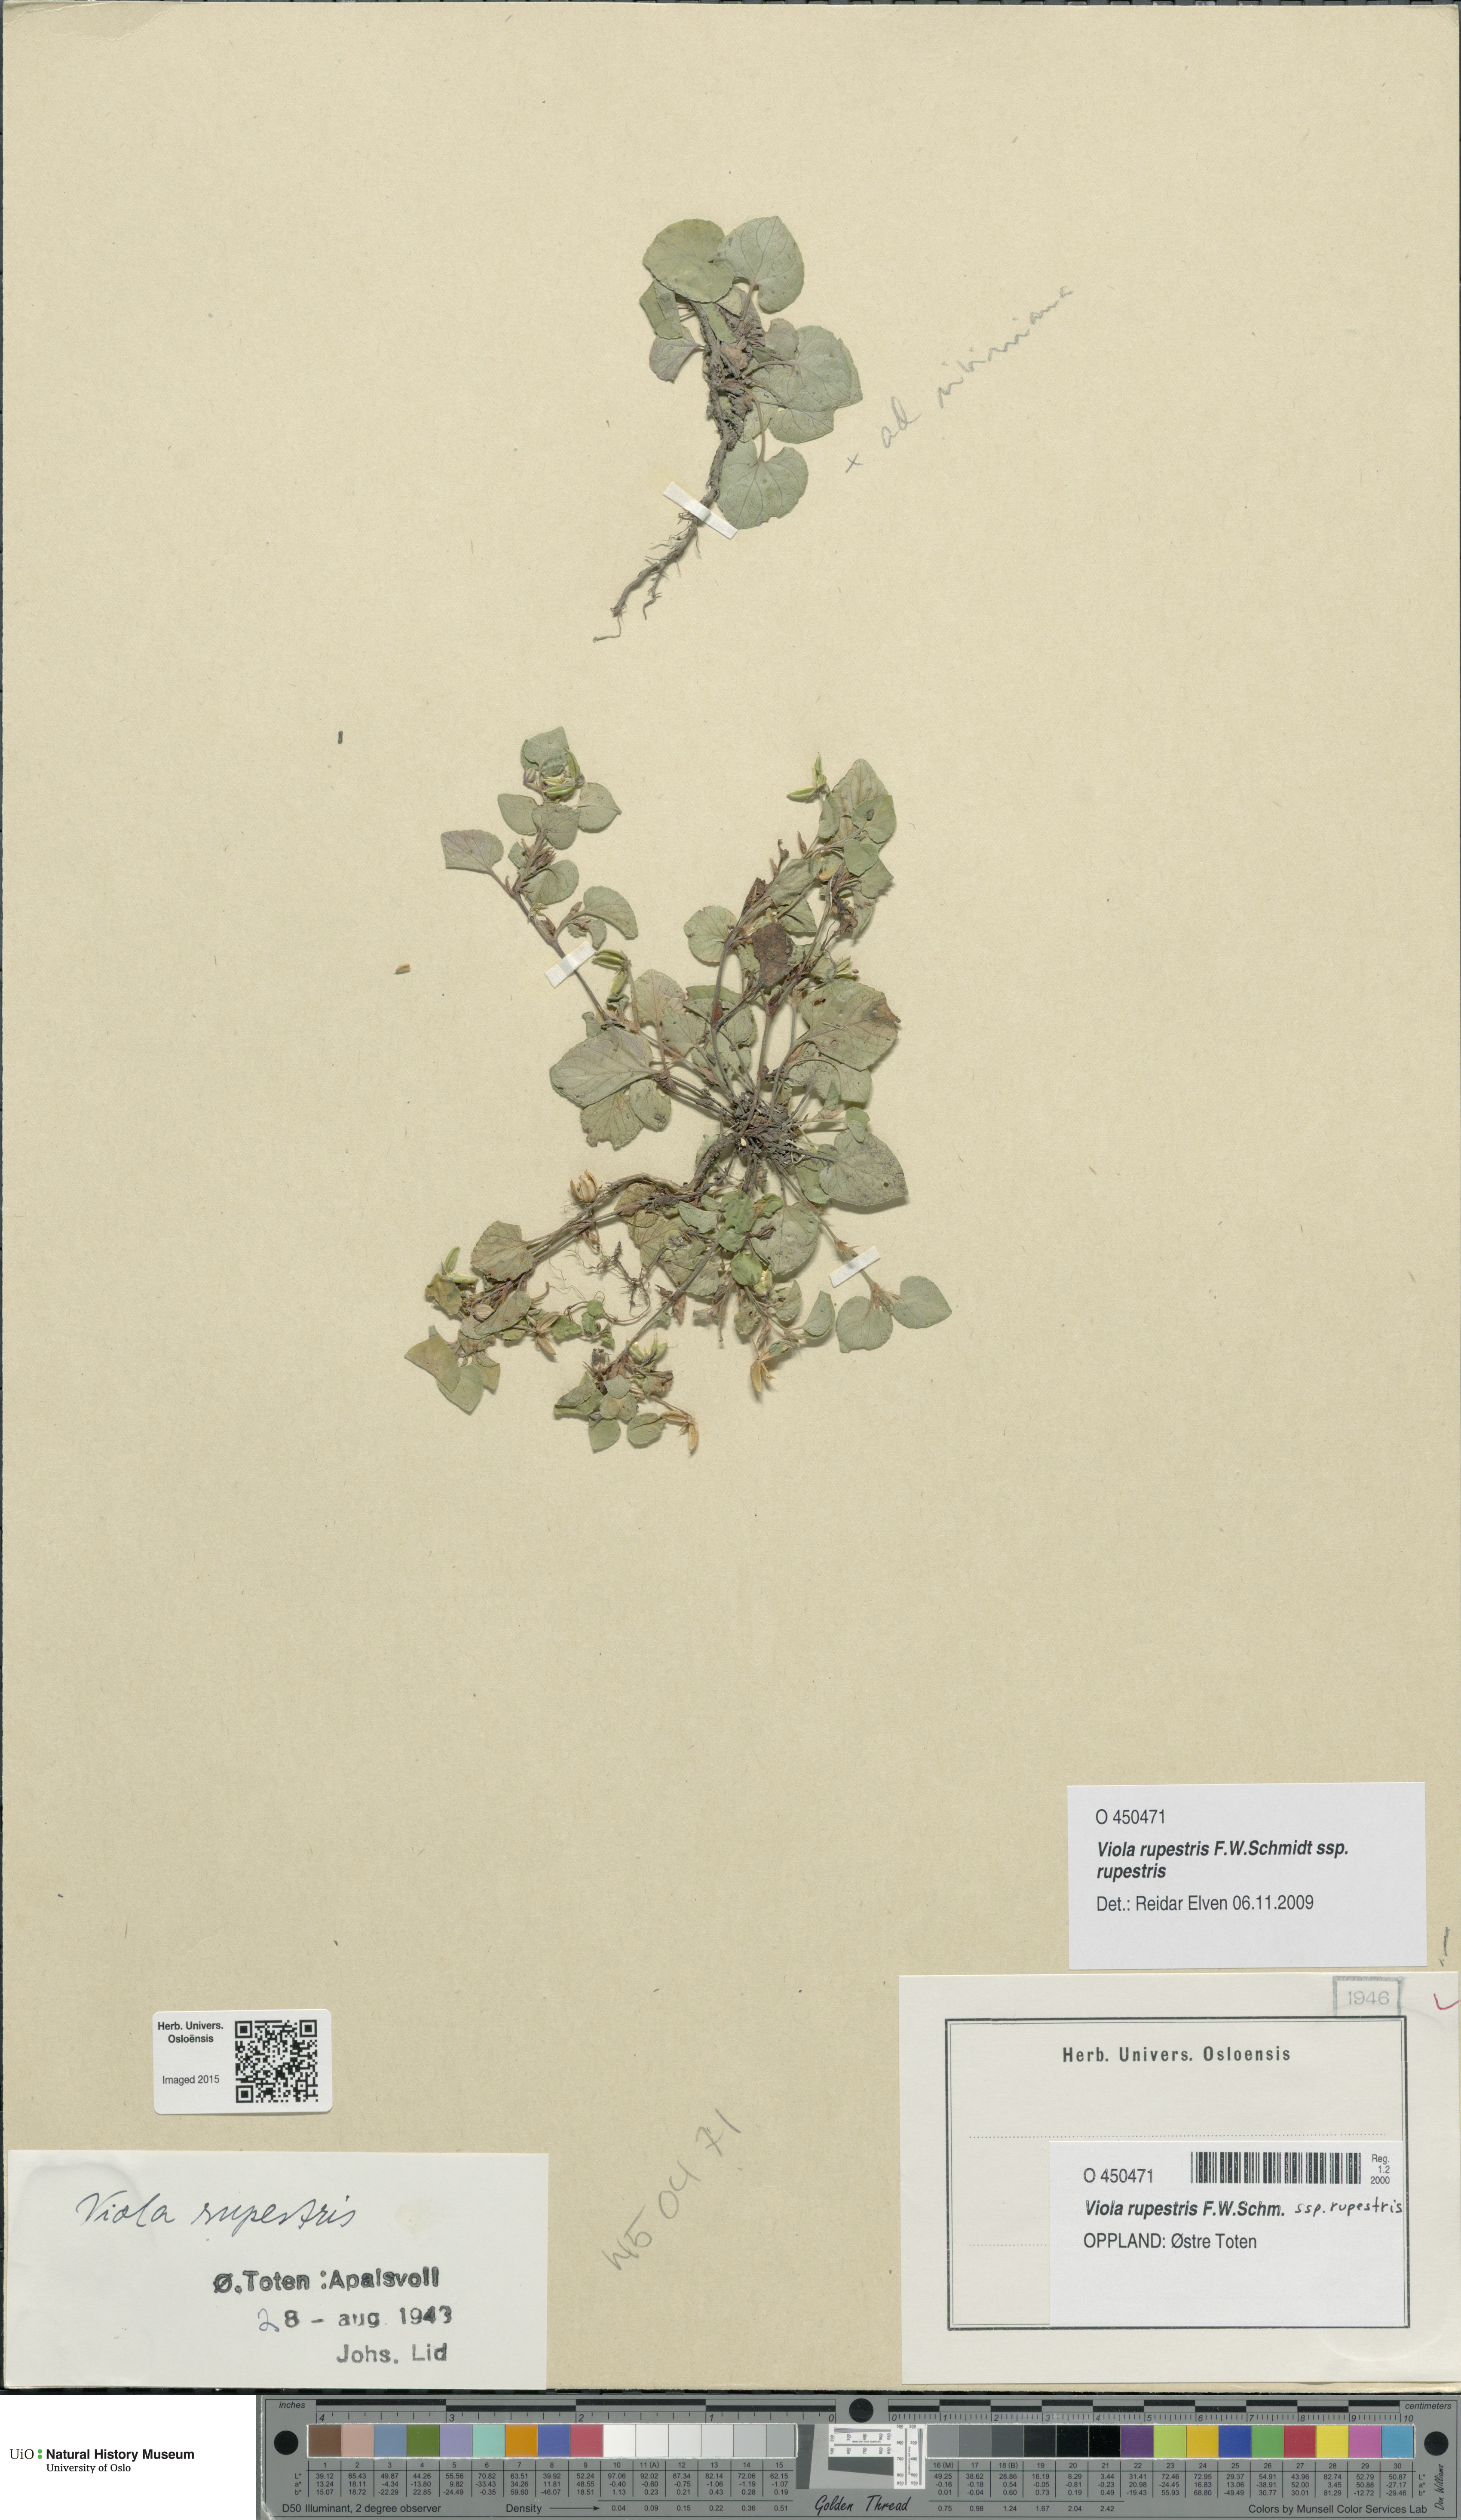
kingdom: Plantae
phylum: Tracheophyta
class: Magnoliopsida
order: Malpighiales
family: Violaceae
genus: Viola
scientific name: Viola rupestris
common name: Teesdale violet
